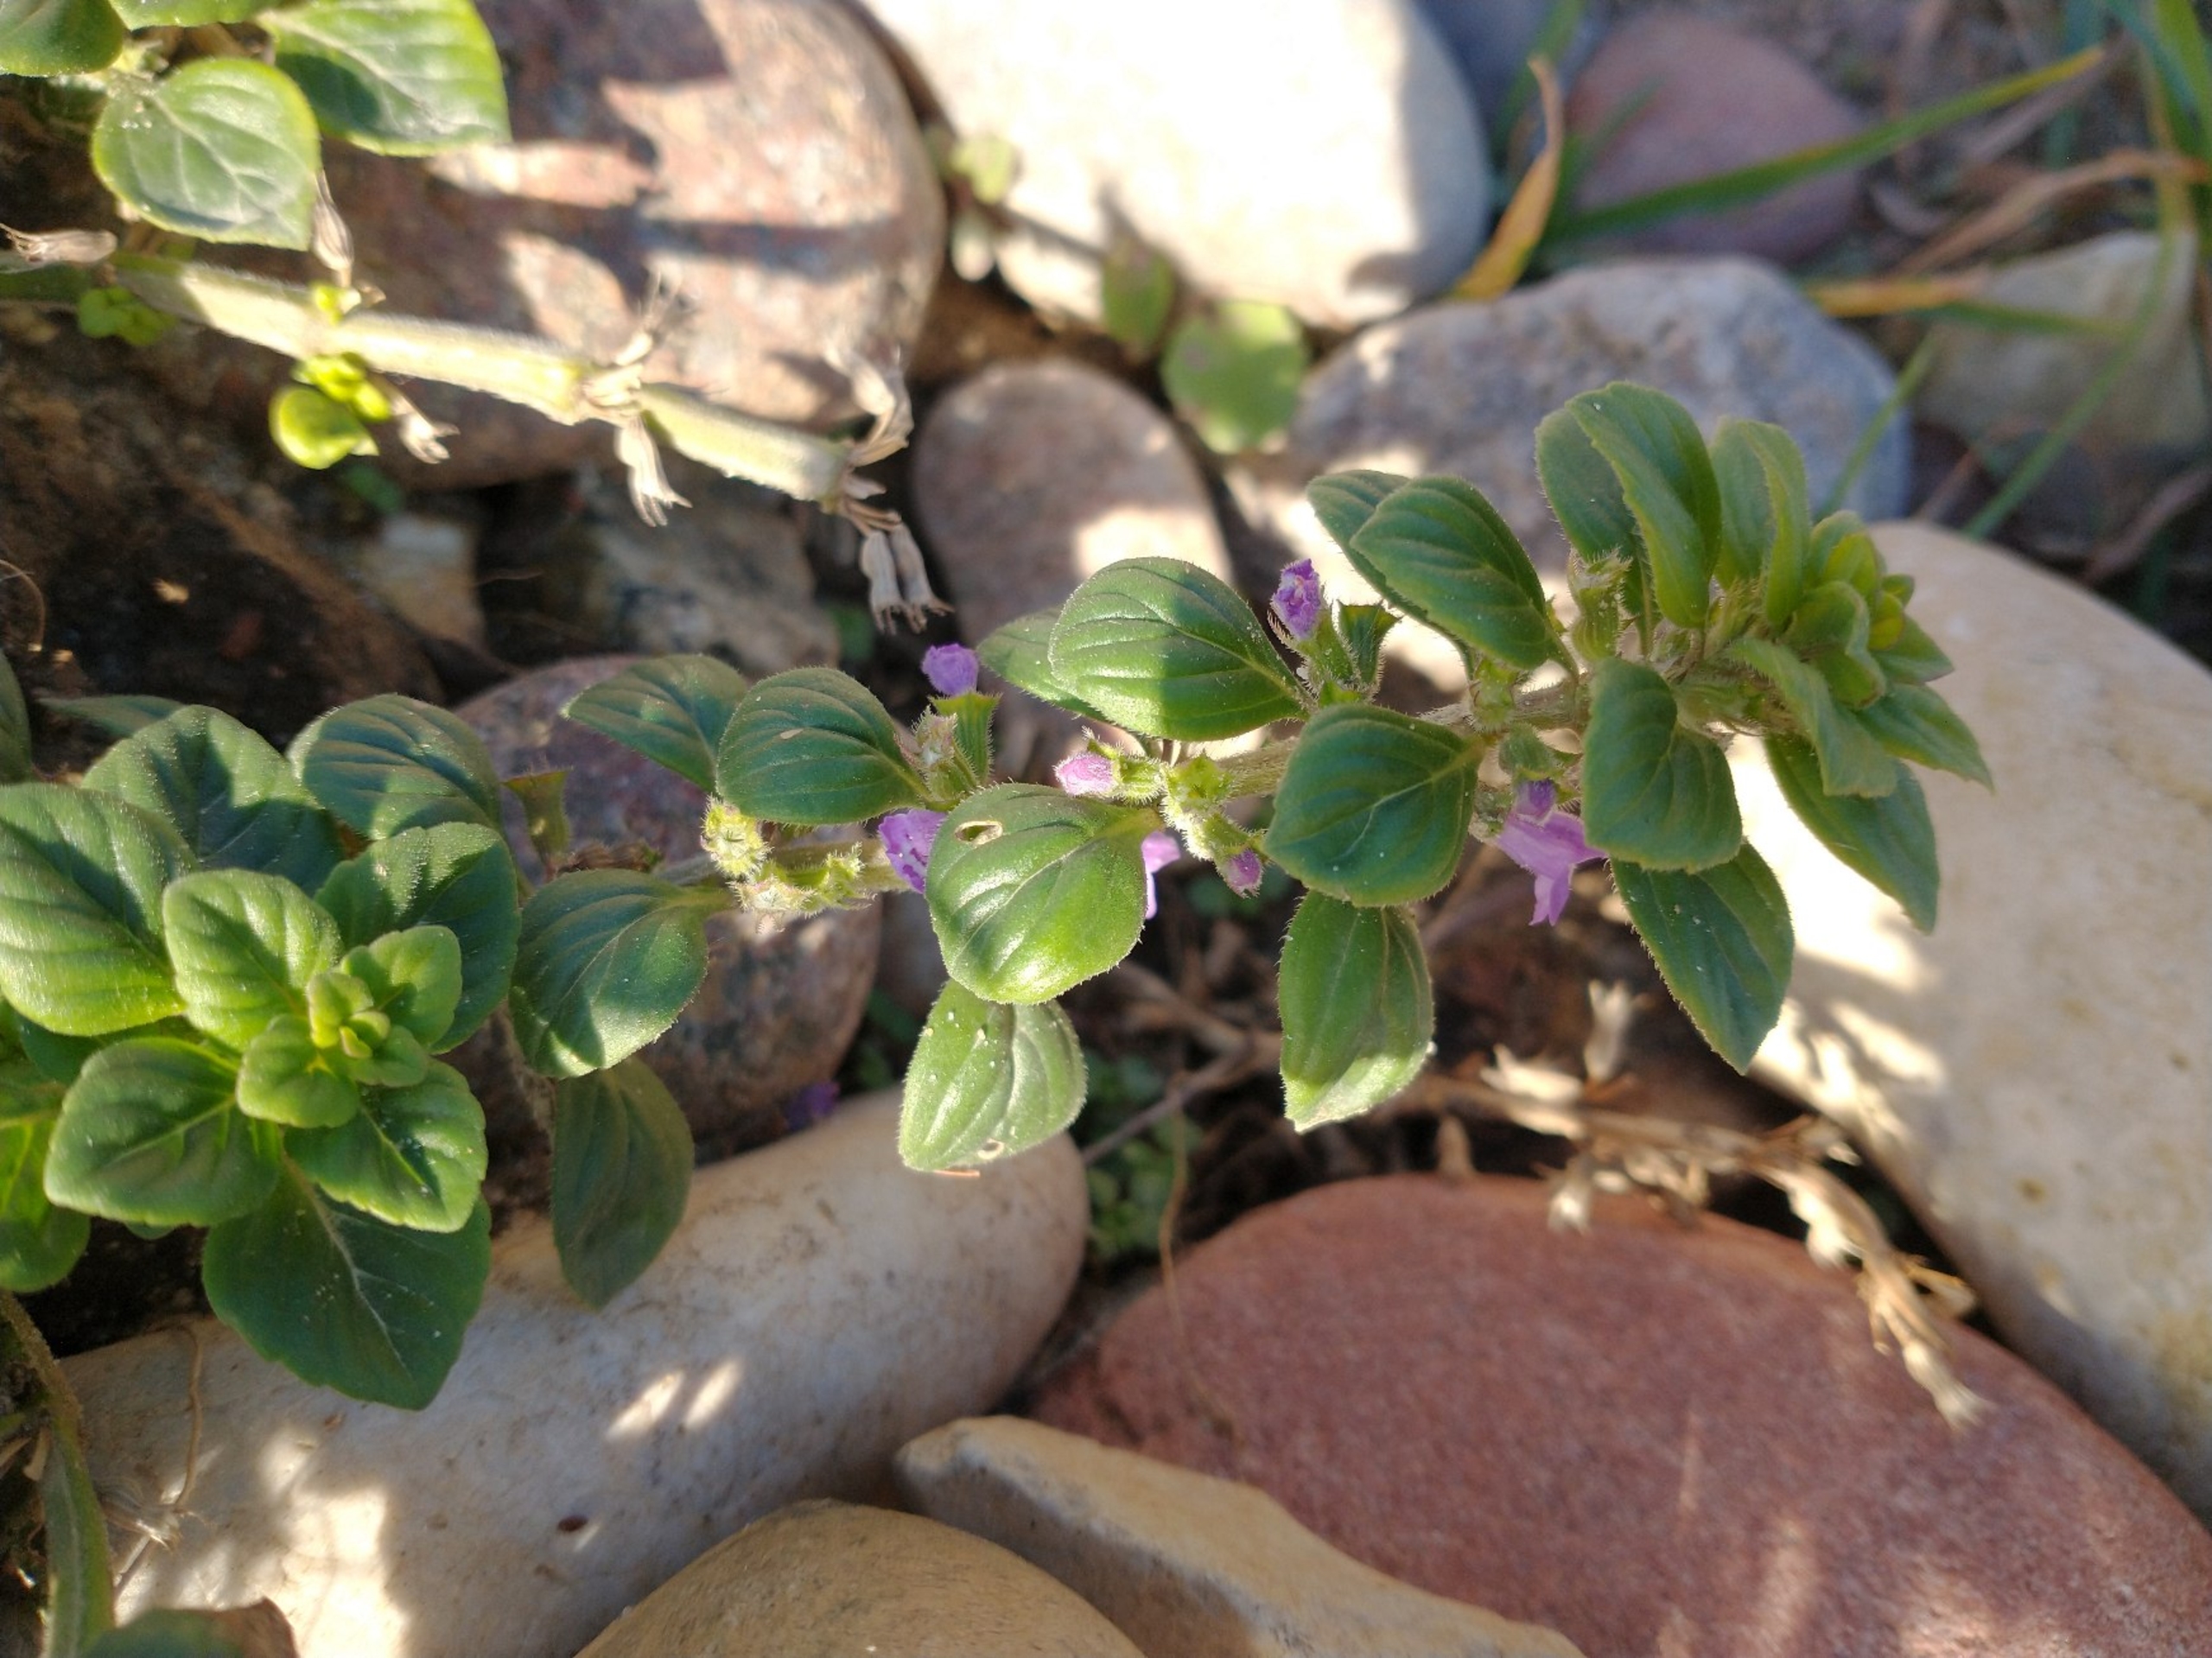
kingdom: Plantae
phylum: Tracheophyta
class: Magnoliopsida
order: Lamiales
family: Lamiaceae
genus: Clinopodium
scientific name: Clinopodium acinos
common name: Voldtimian
